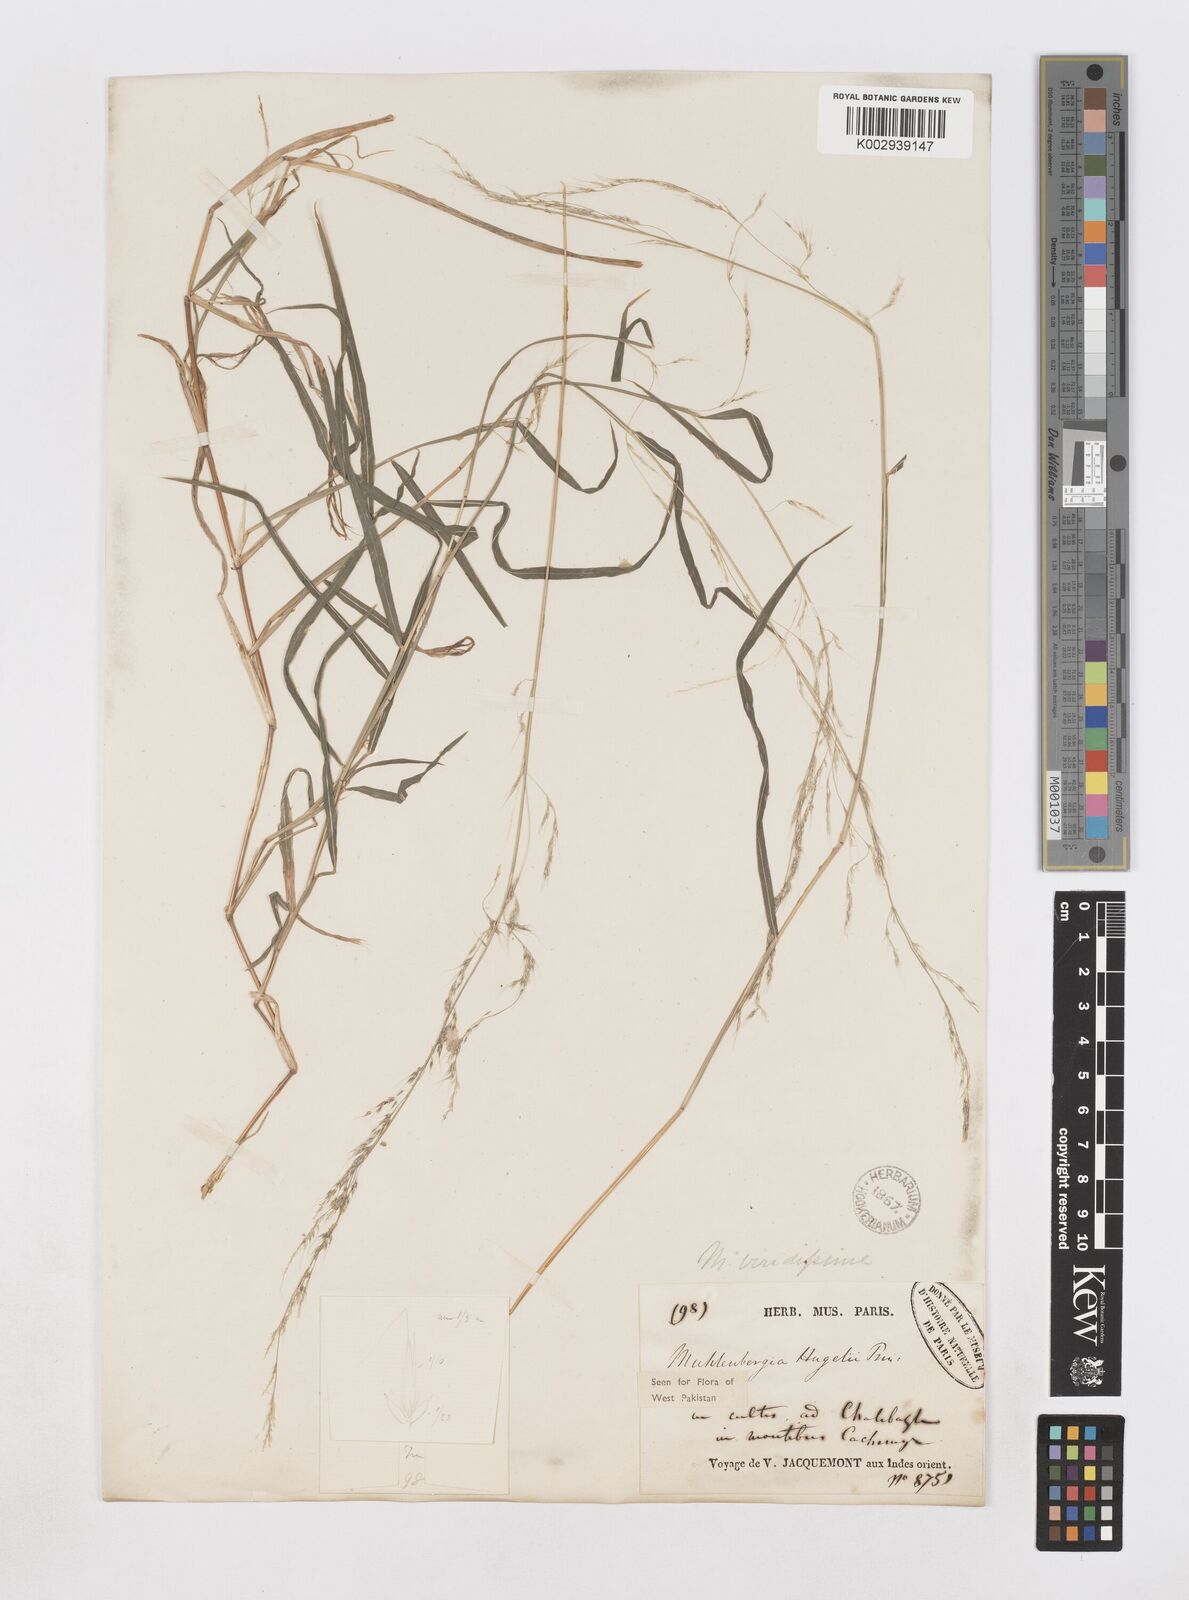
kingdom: Plantae
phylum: Tracheophyta
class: Liliopsida
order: Poales
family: Poaceae
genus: Muhlenbergia
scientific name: Muhlenbergia huegelii
